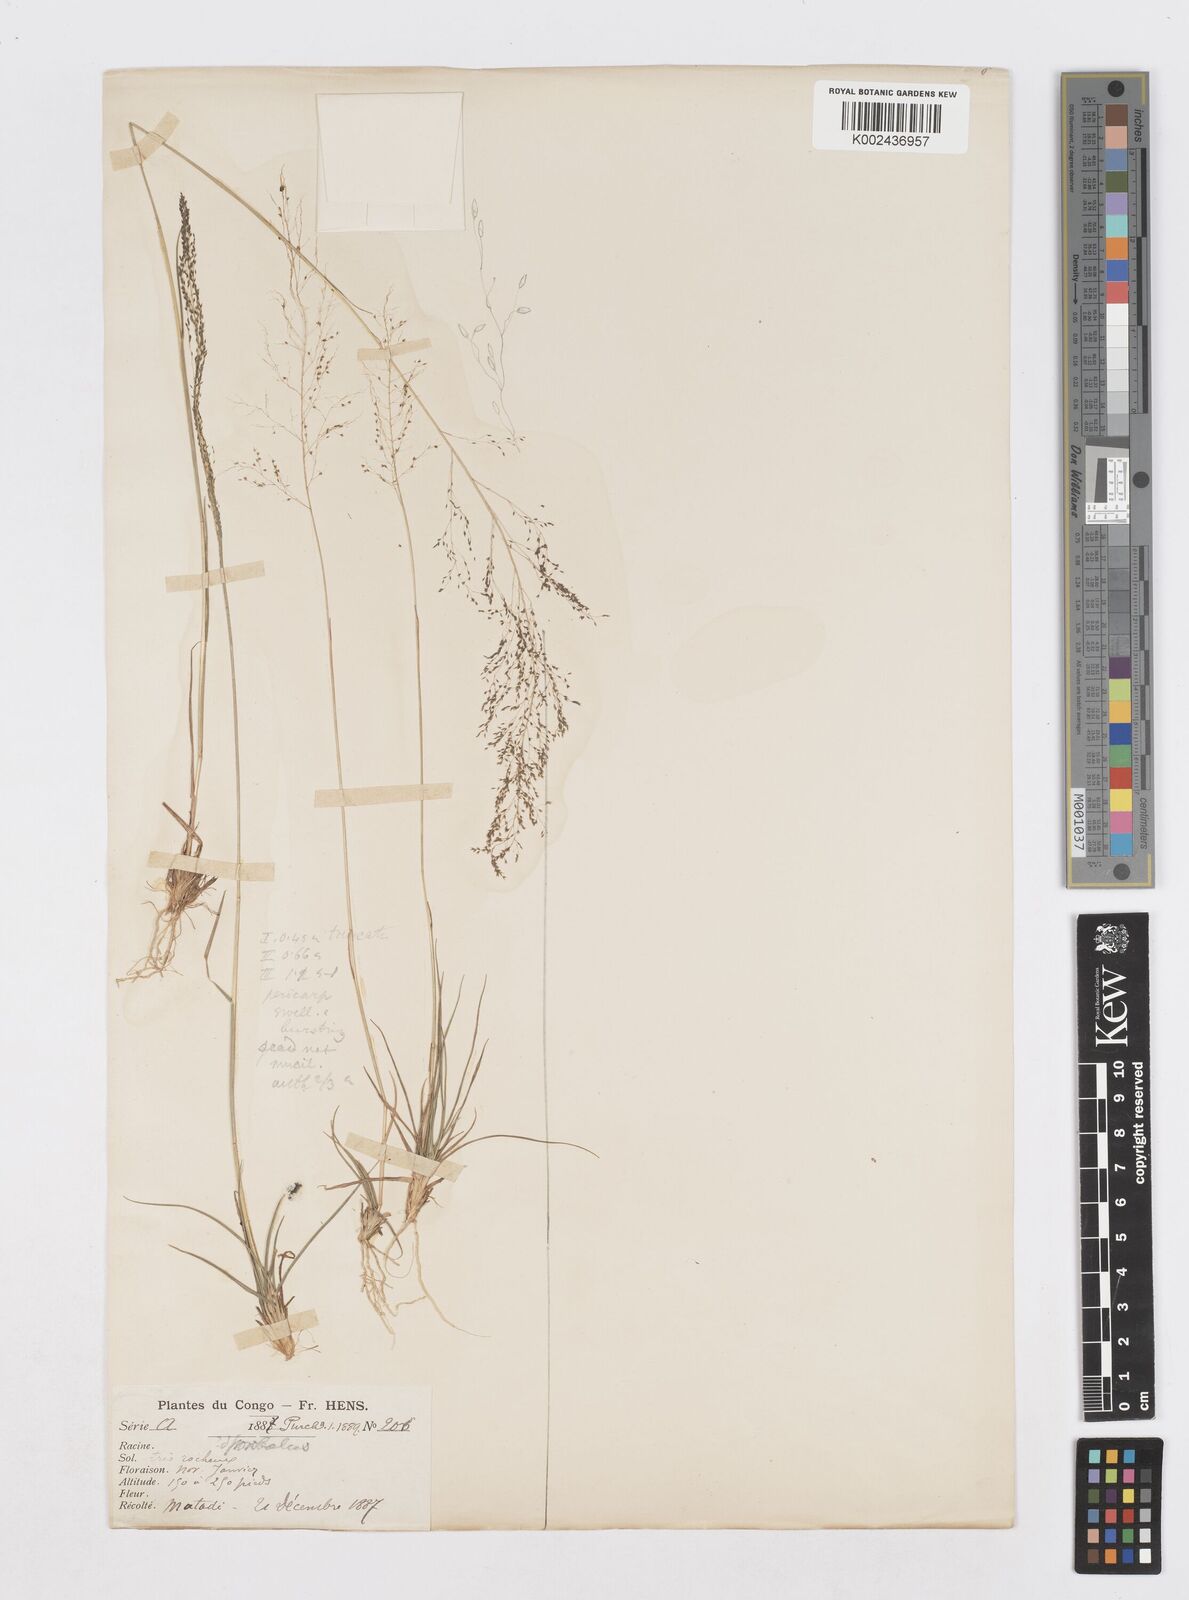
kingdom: Plantae
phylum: Tracheophyta
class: Liliopsida
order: Poales
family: Poaceae
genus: Sporobolus
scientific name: Sporobolus festivus
